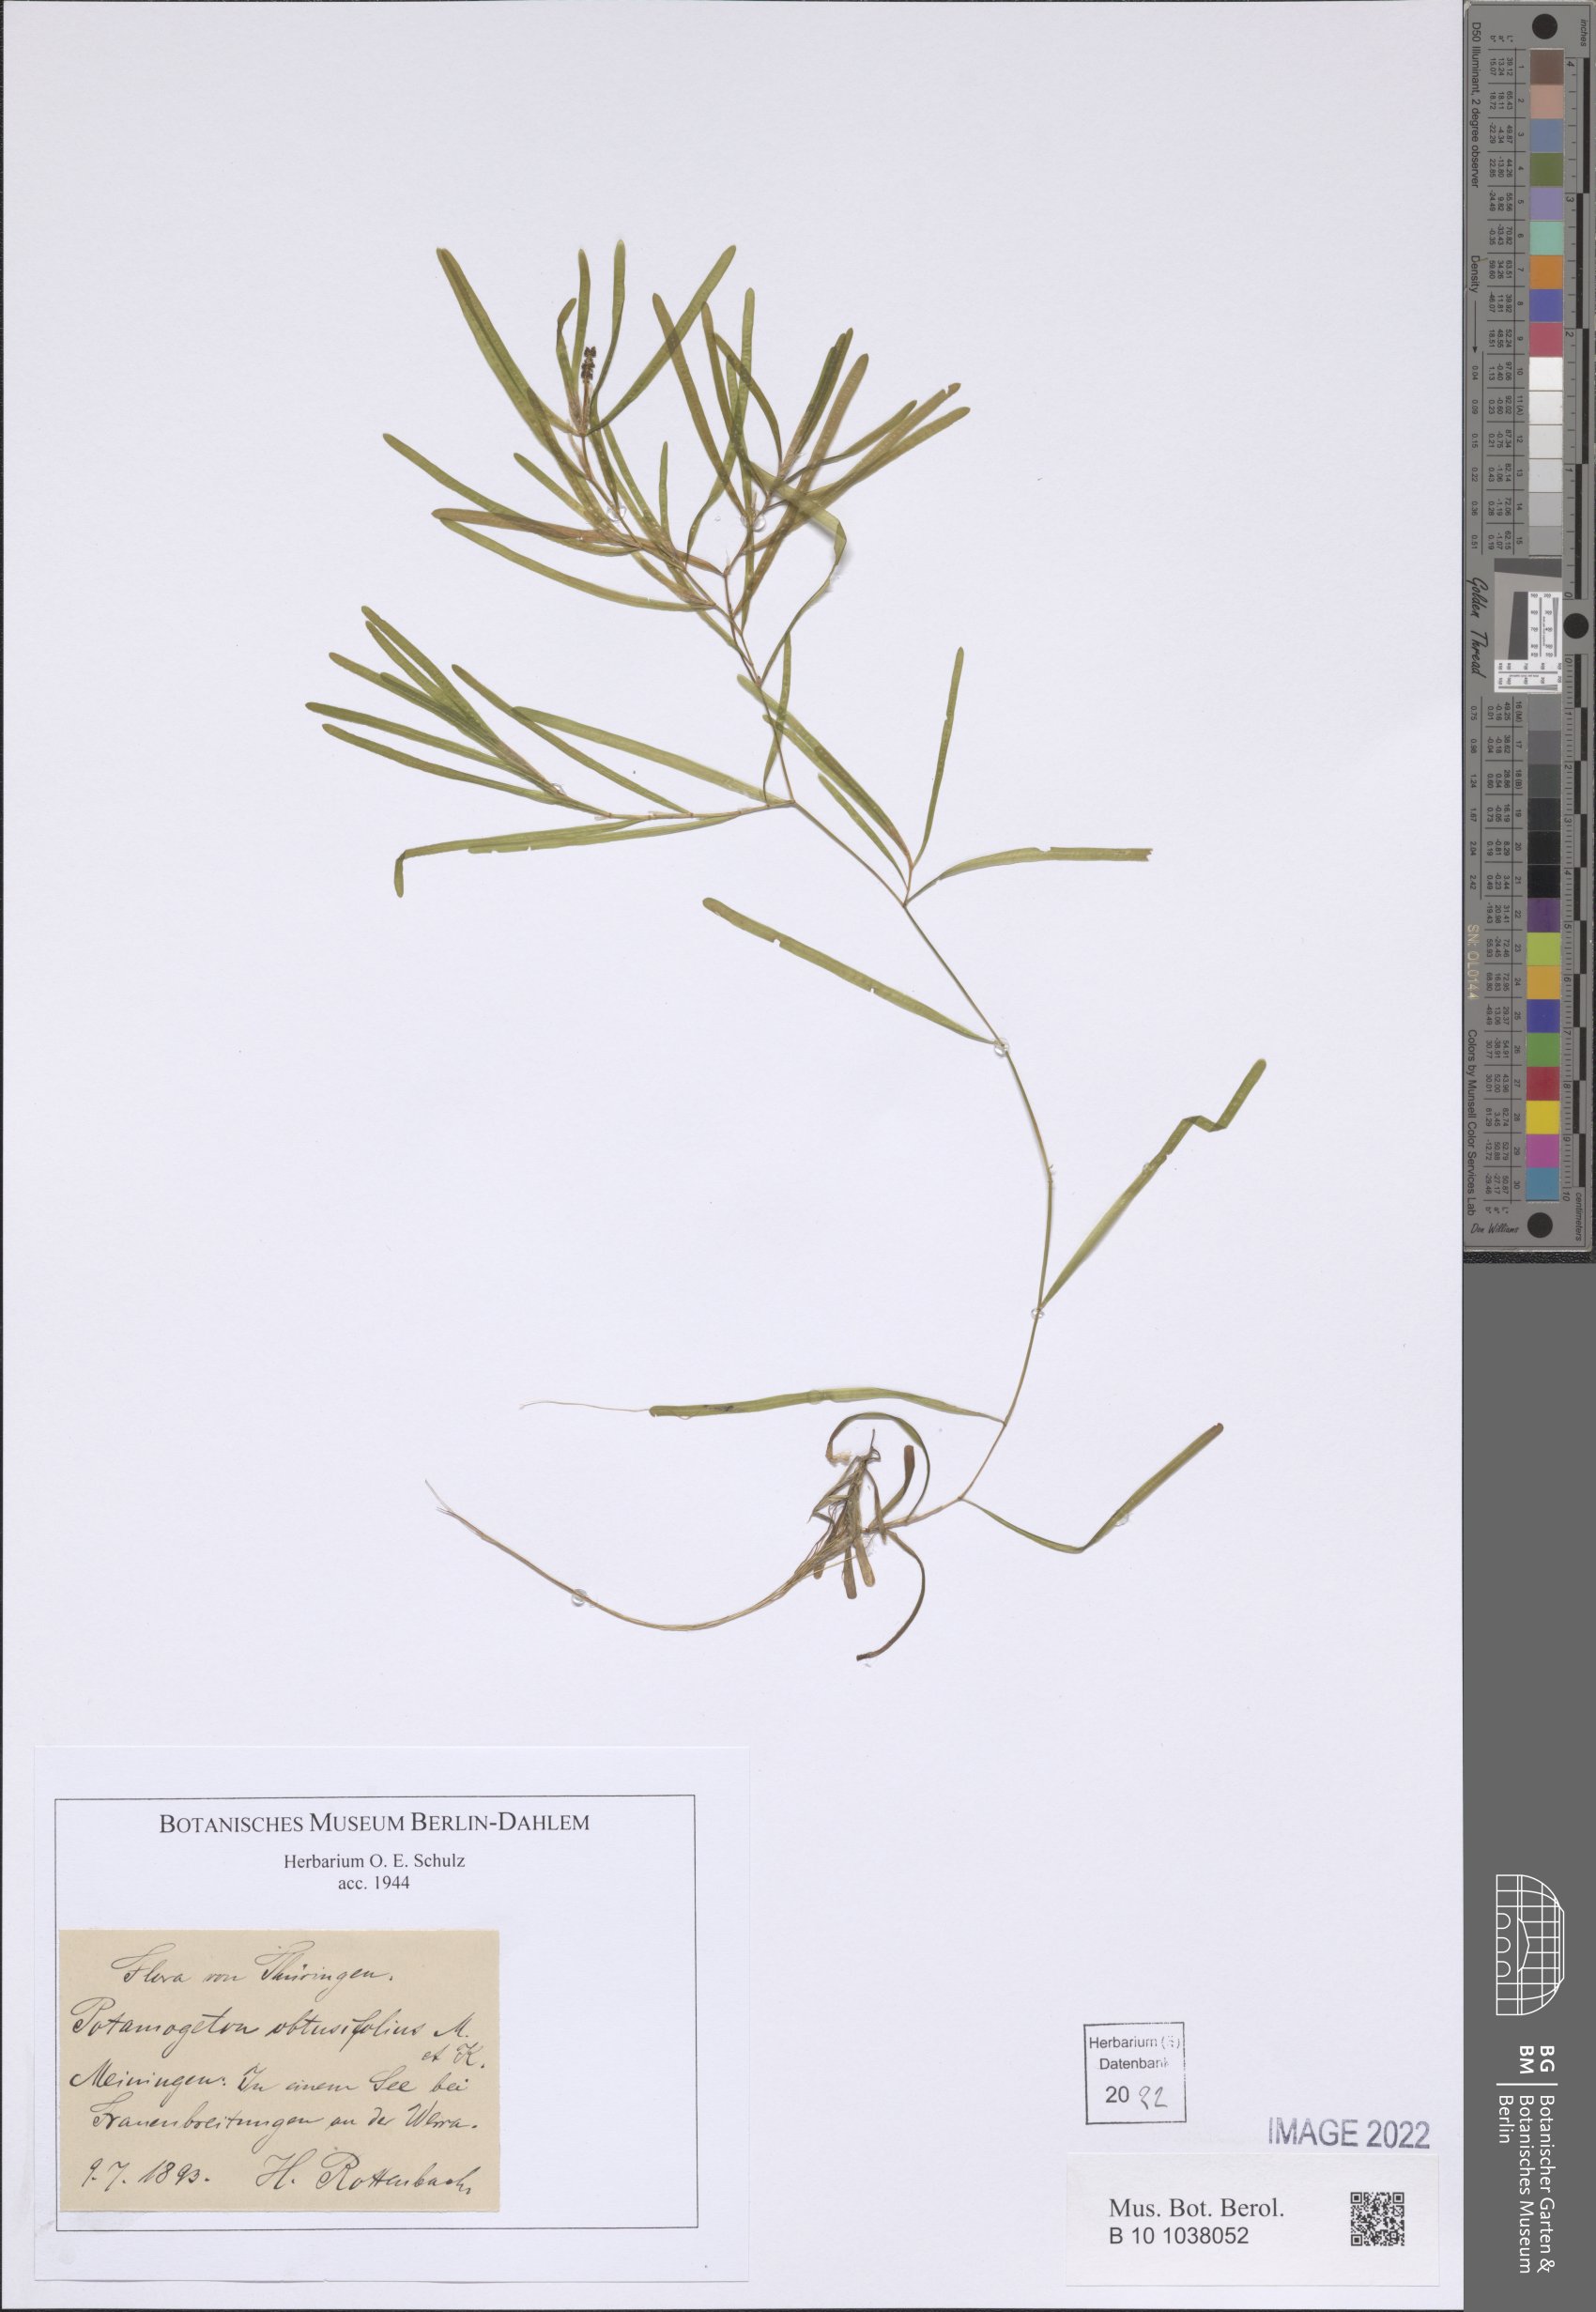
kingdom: Plantae
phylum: Tracheophyta
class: Liliopsida
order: Alismatales
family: Potamogetonaceae
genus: Potamogeton
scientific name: Potamogeton obtusifolius
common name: Blunt-leaved pondweed
